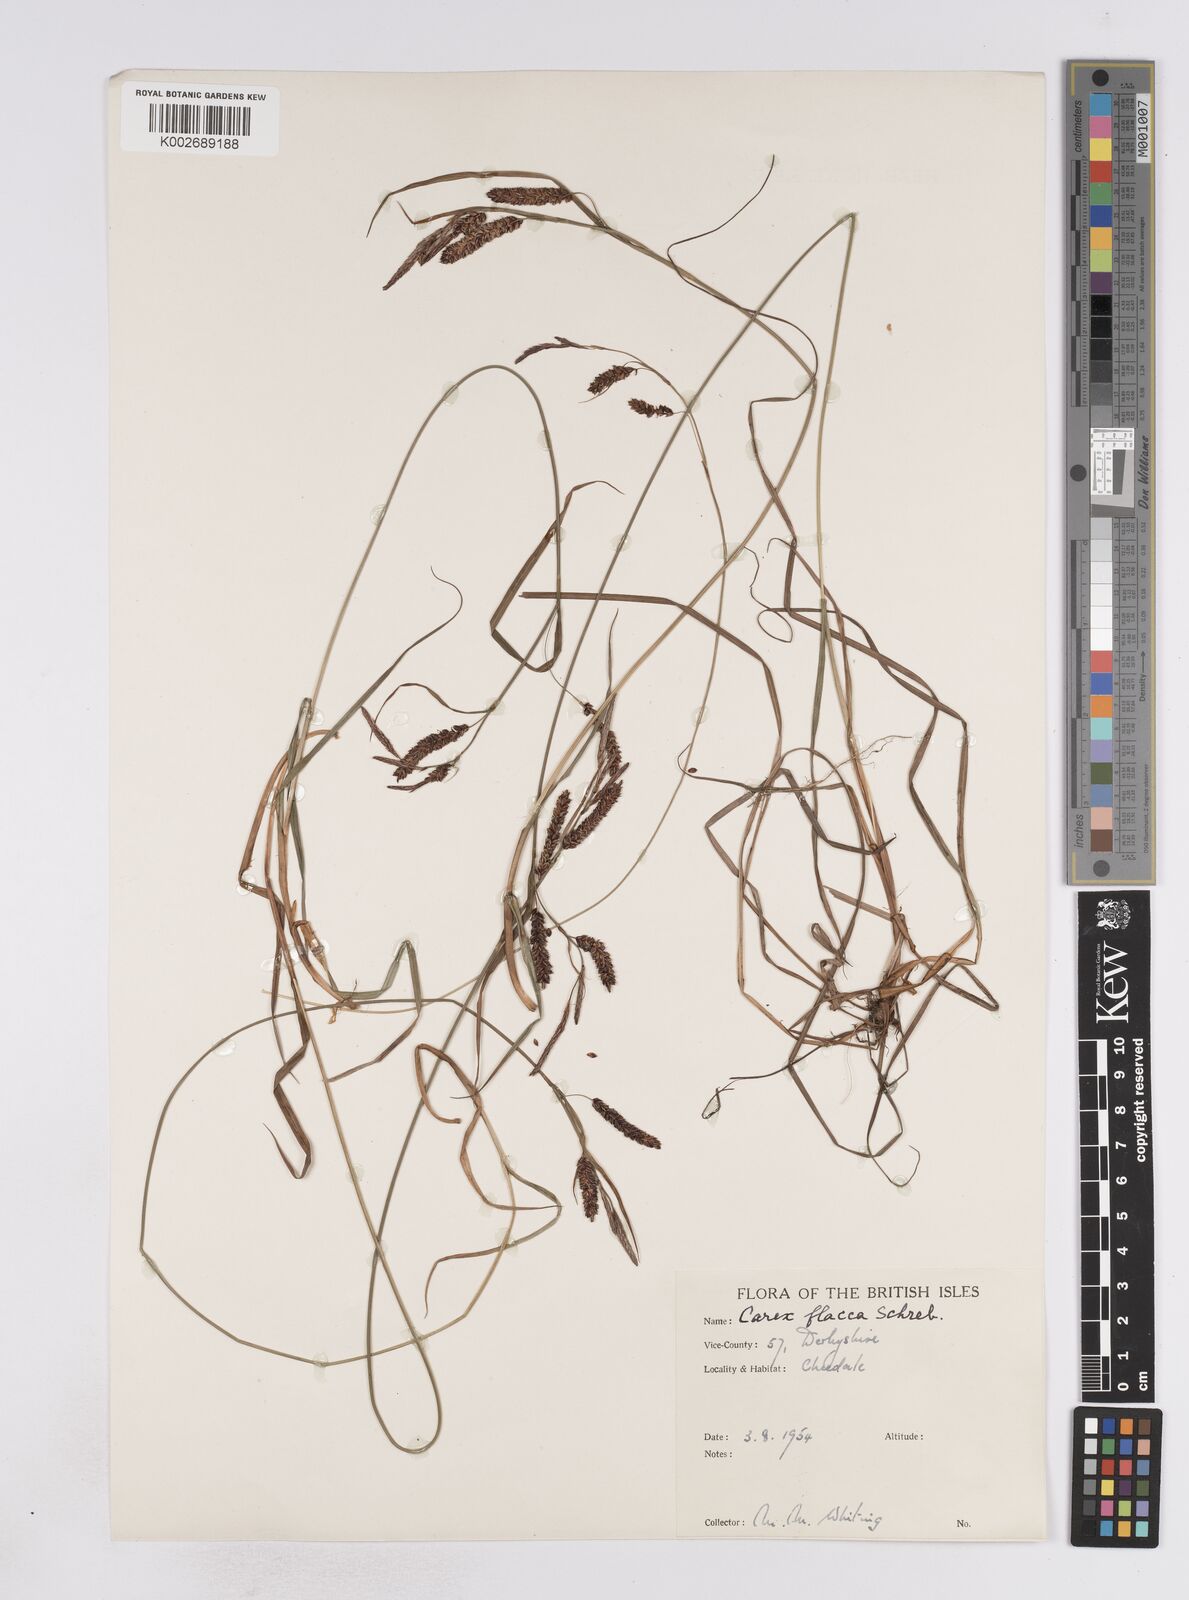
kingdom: Plantae
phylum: Tracheophyta
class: Liliopsida
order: Poales
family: Cyperaceae
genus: Carex
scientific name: Carex flacca
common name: Glaucous sedge
